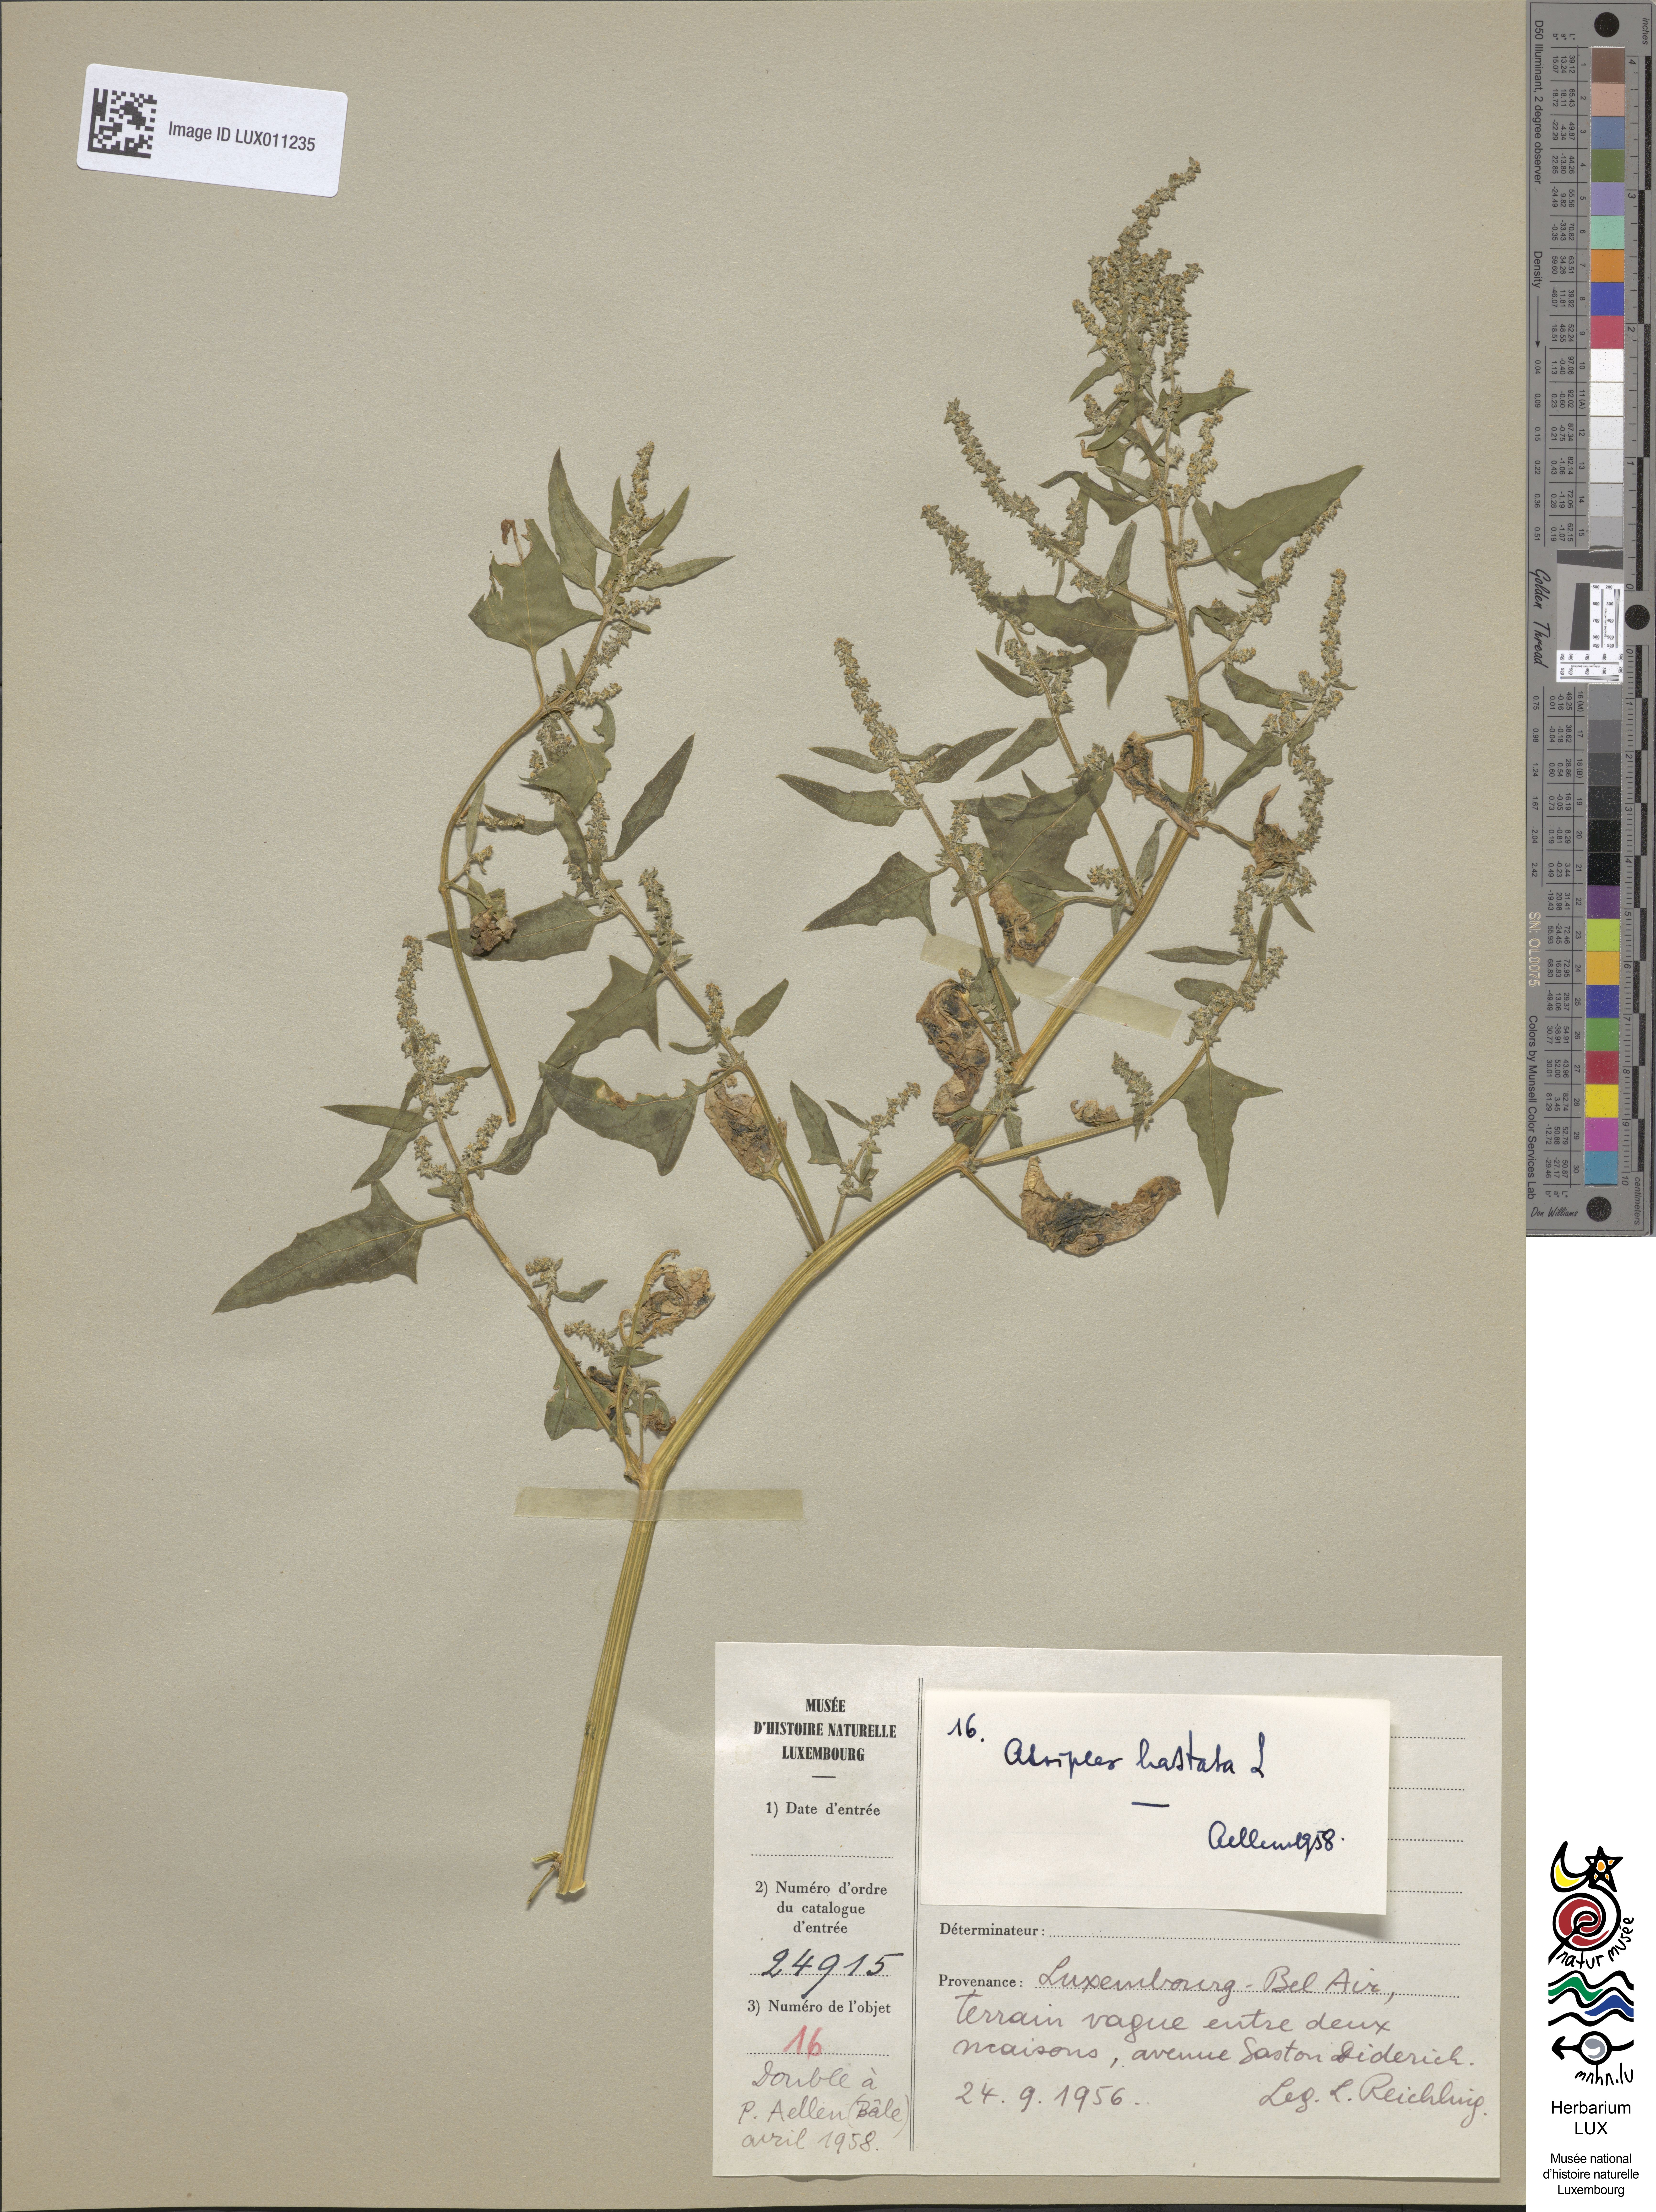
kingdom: Plantae
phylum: Tracheophyta
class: Magnoliopsida
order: Caryophyllales
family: Amaranthaceae
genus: Atriplex
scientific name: Atriplex calotheca
